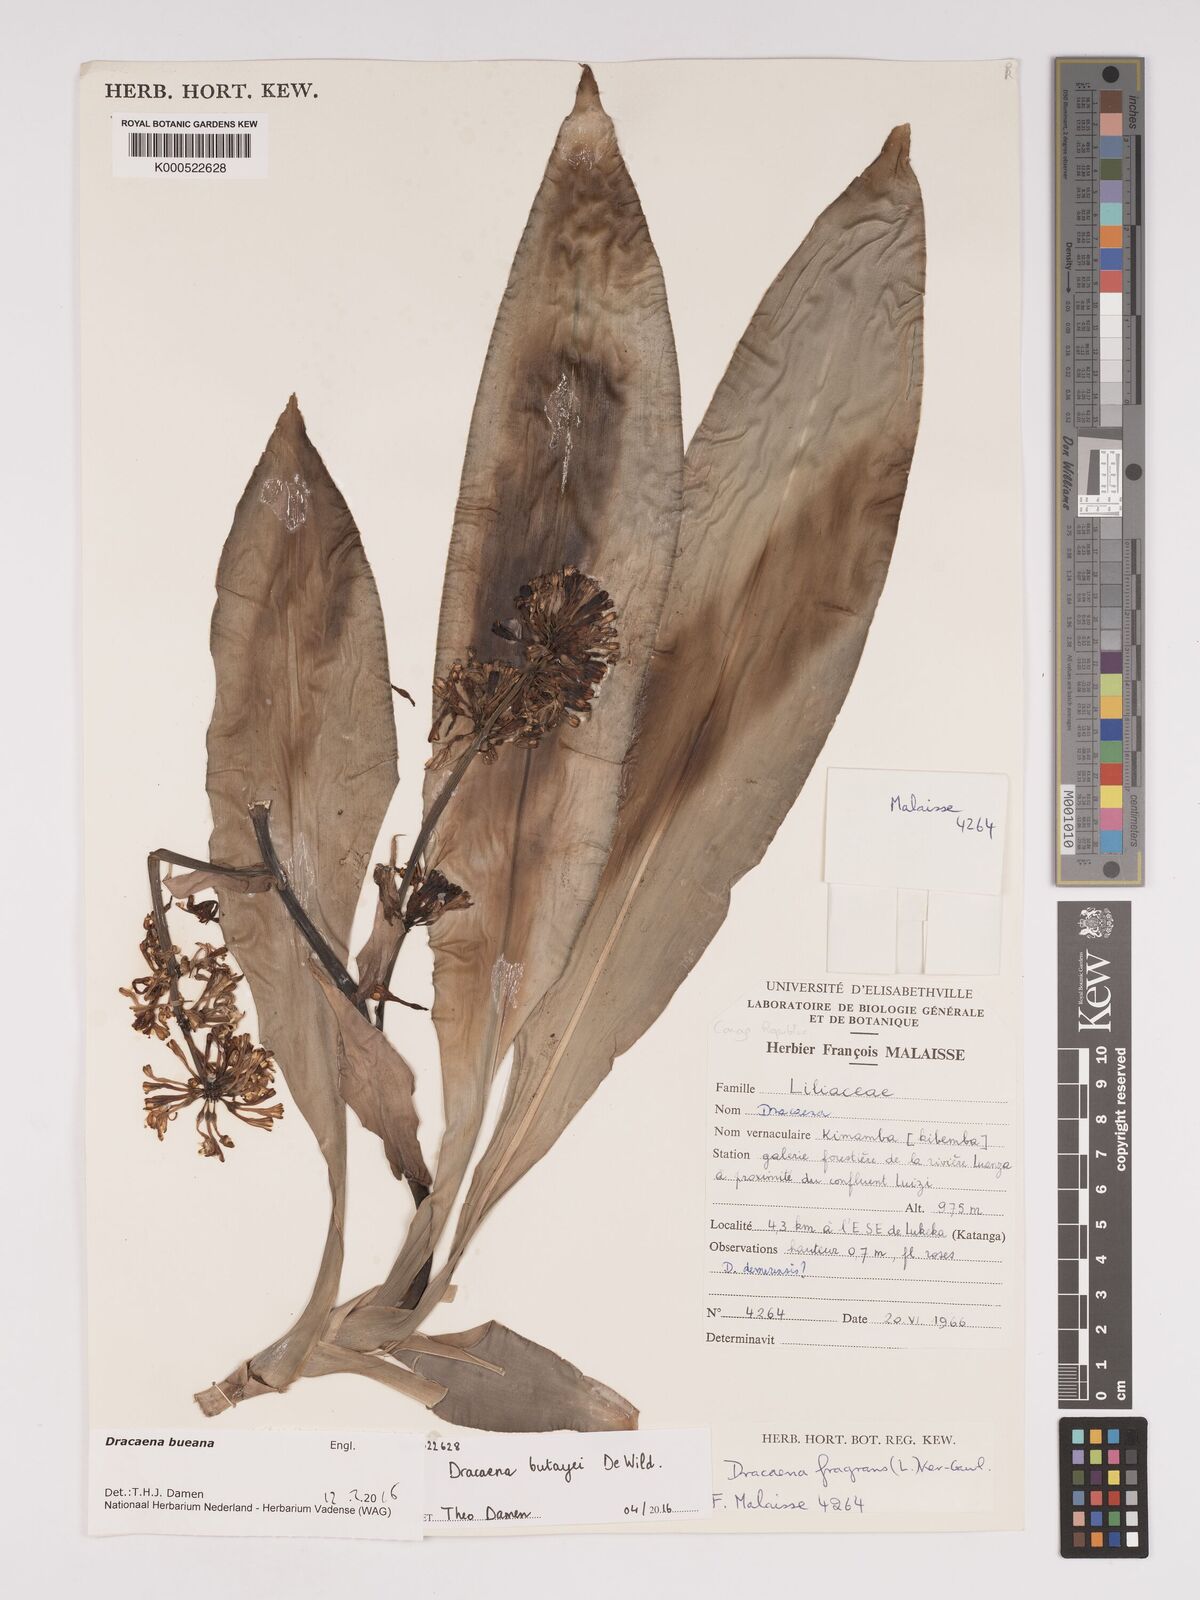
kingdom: Plantae
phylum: Tracheophyta
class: Liliopsida
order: Asparagales
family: Asparagaceae
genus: Dracaena
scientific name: Dracaena fragrans
